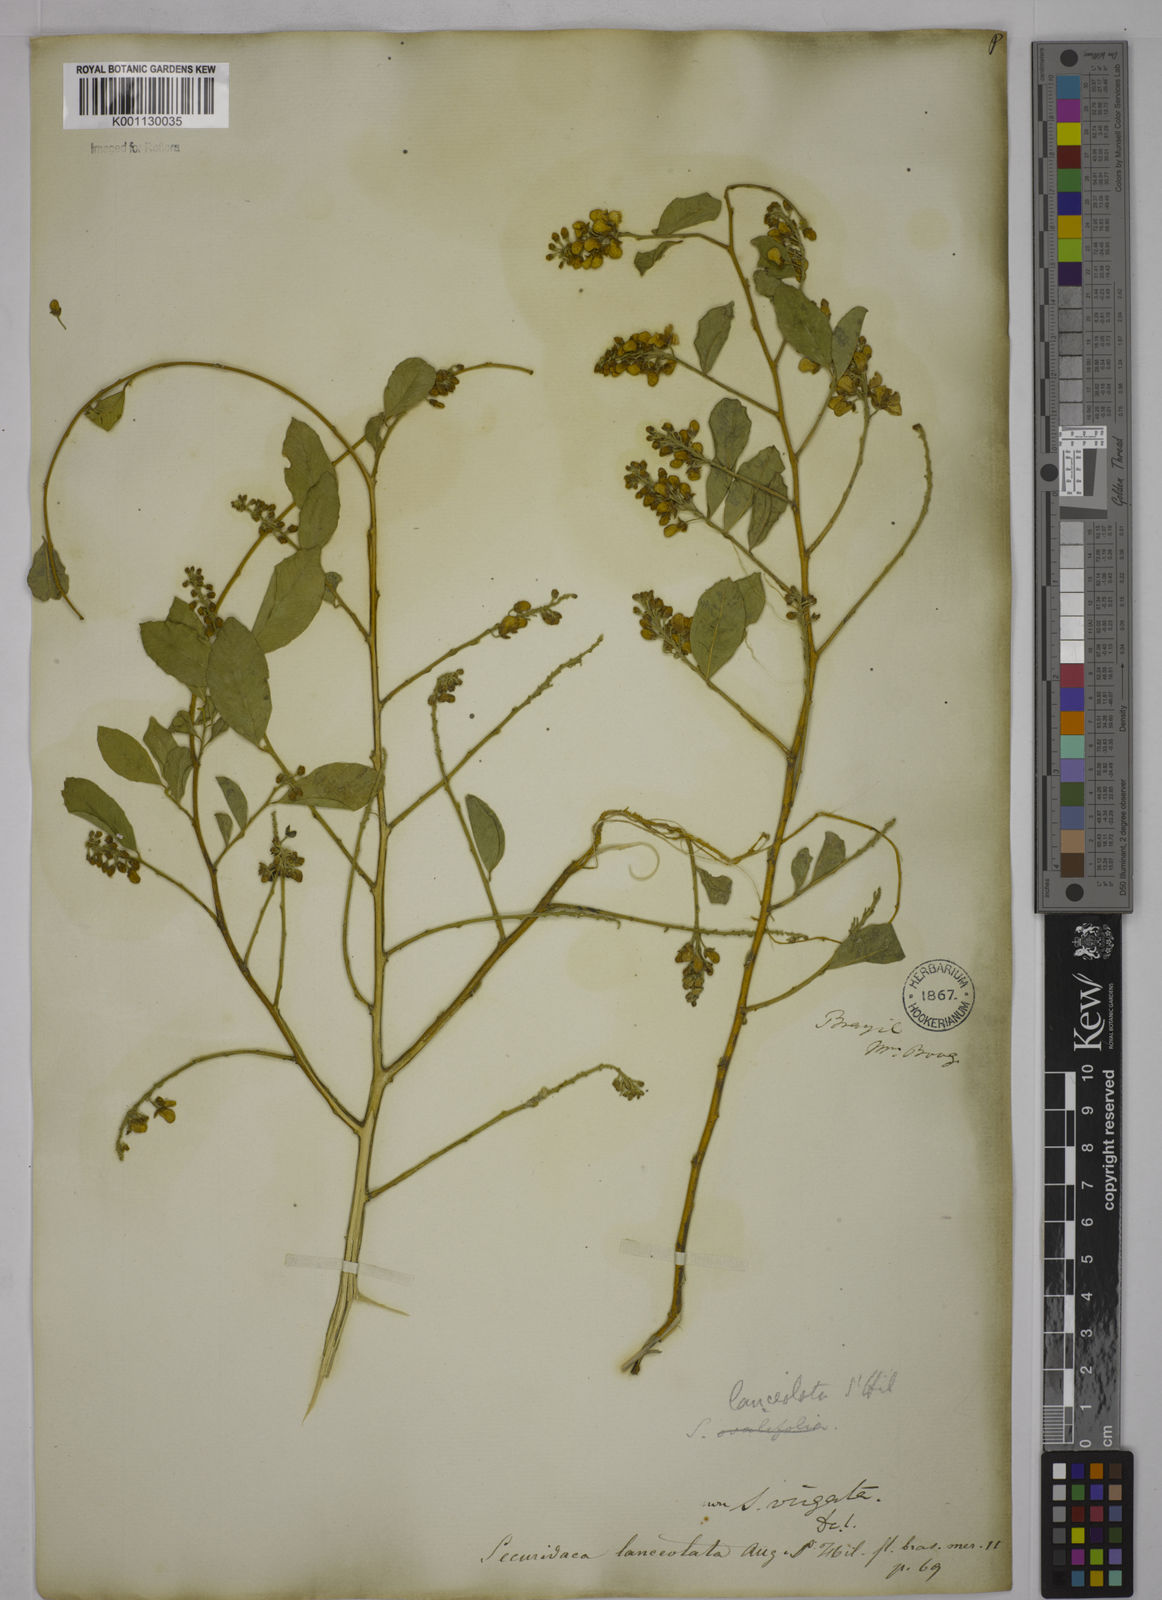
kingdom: Plantae
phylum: Tracheophyta
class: Magnoliopsida
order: Fabales
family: Polygalaceae
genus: Securidaca
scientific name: Securidaca lanceolata
